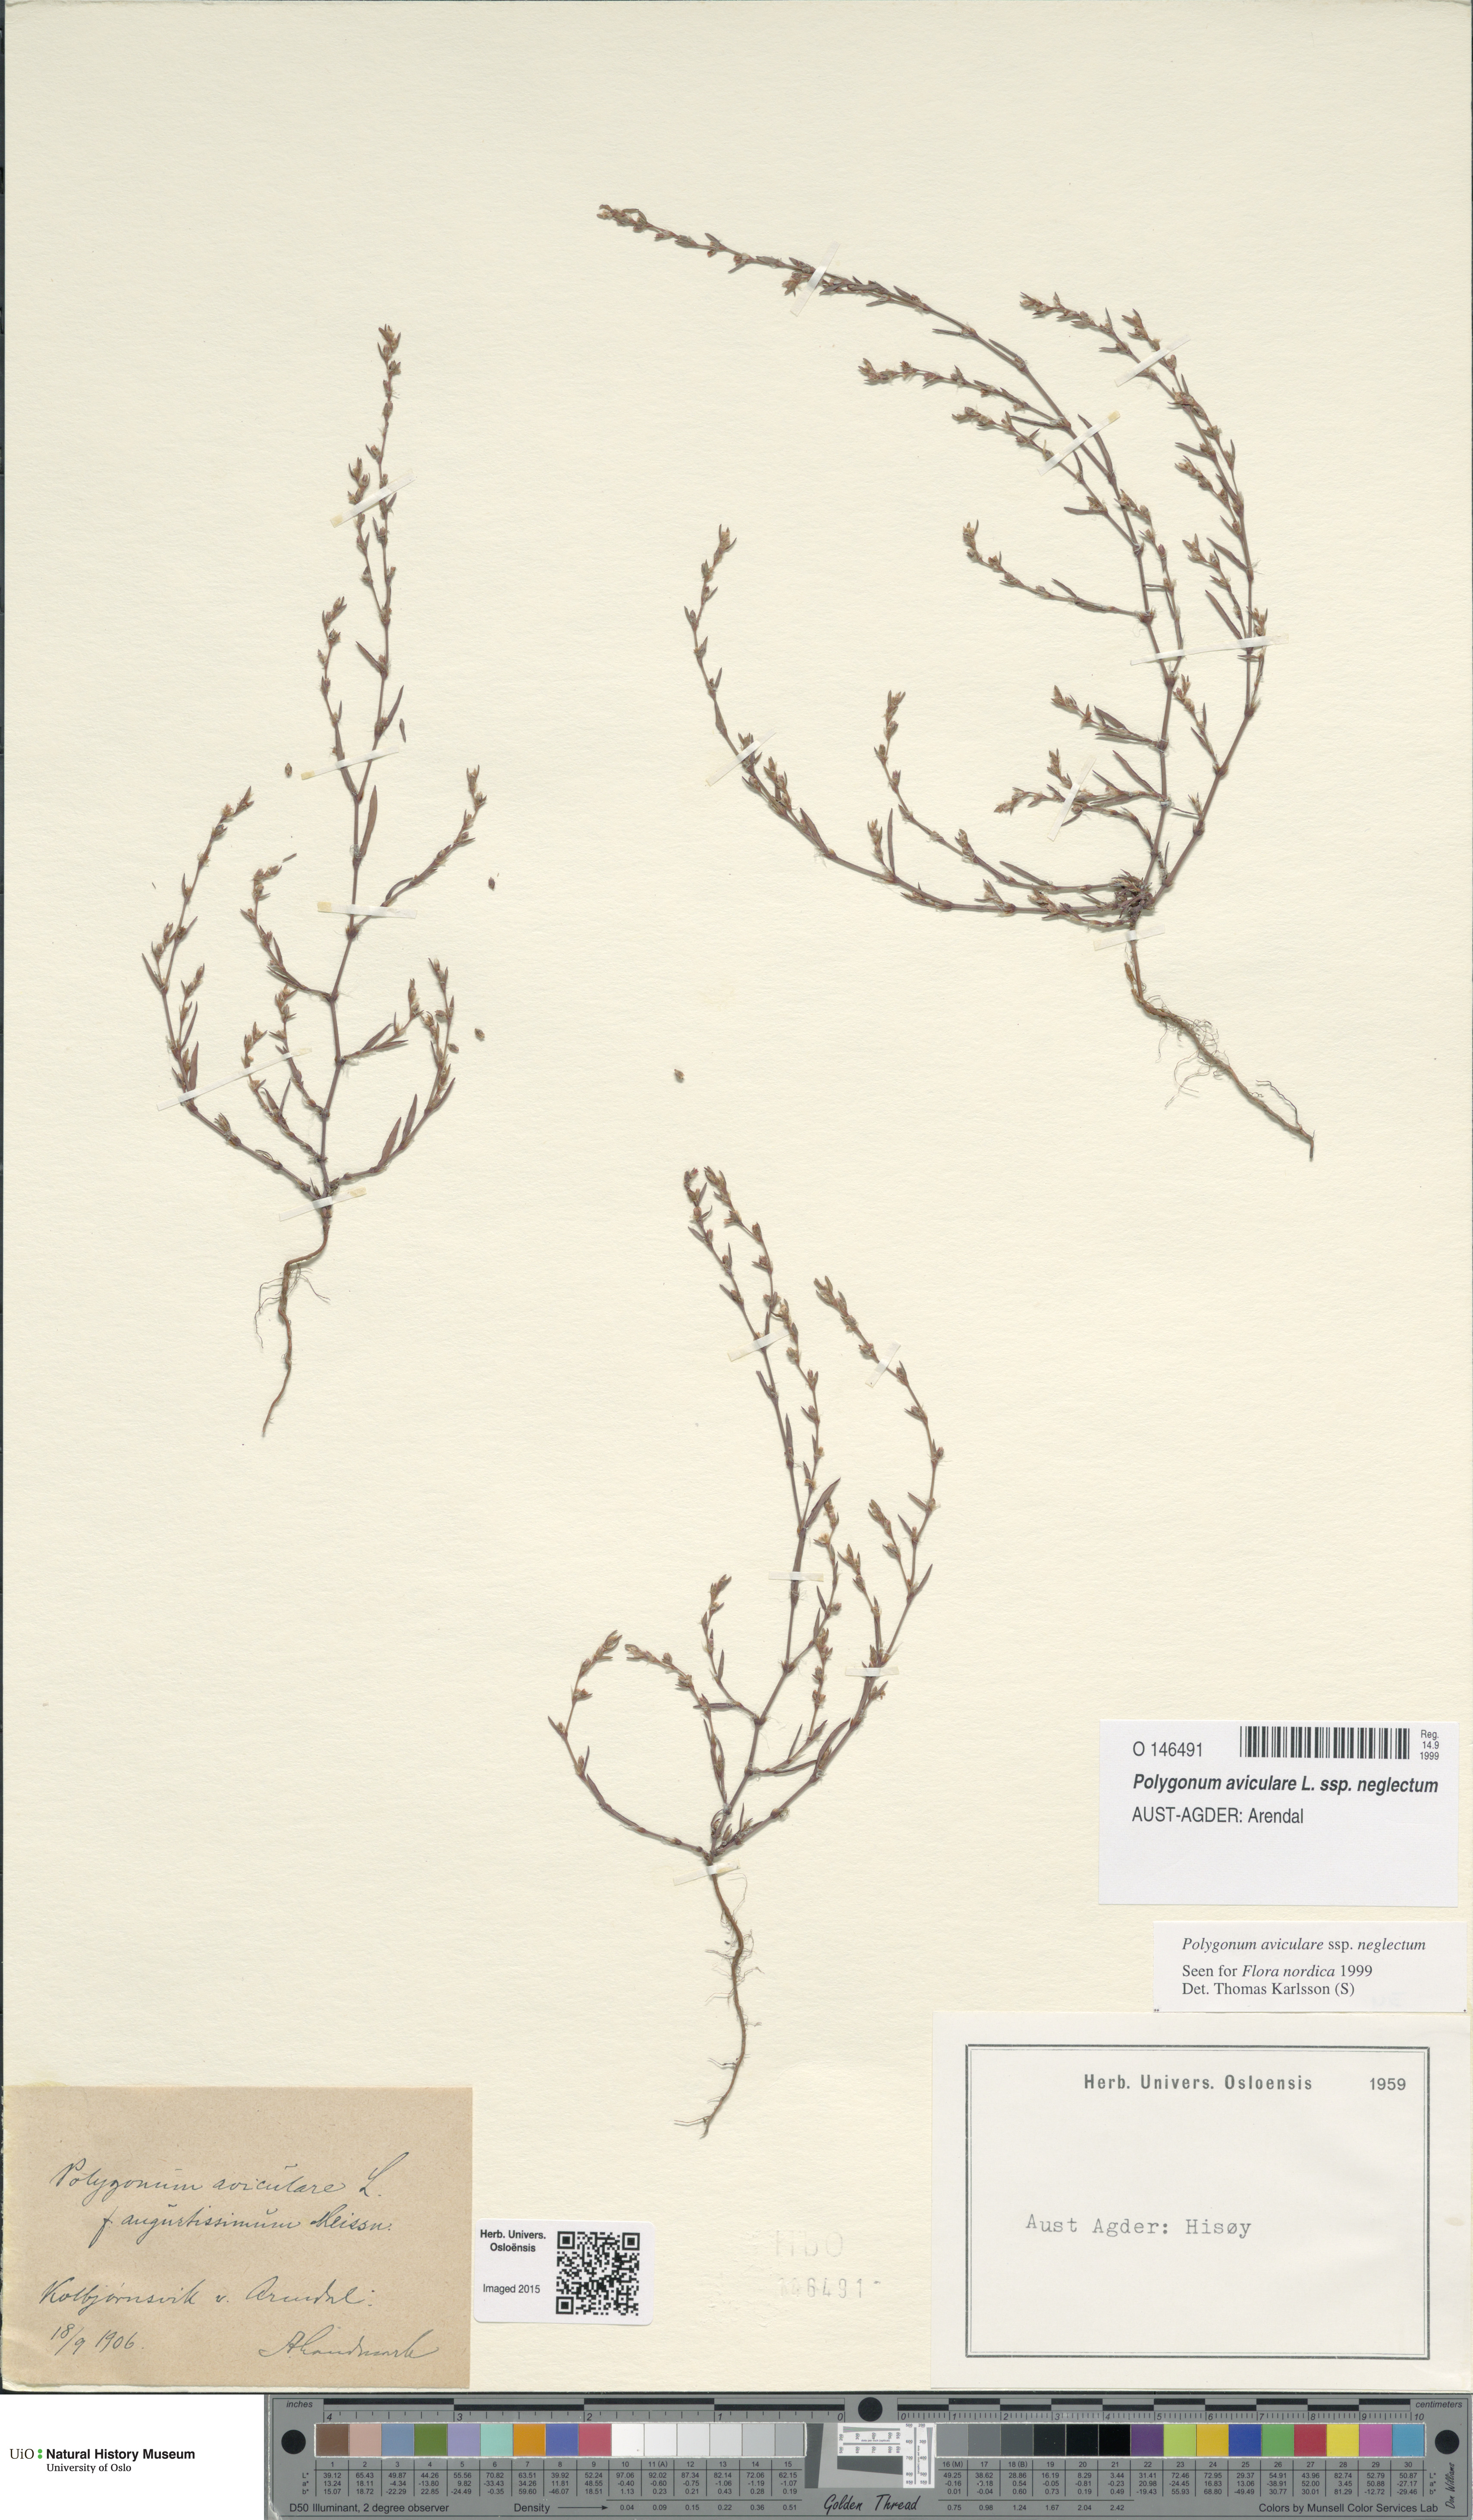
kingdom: Plantae
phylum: Tracheophyta
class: Magnoliopsida
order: Caryophyllales
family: Polygonaceae
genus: Polygonum
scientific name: Polygonum aviculare
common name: Prostrate knotweed
